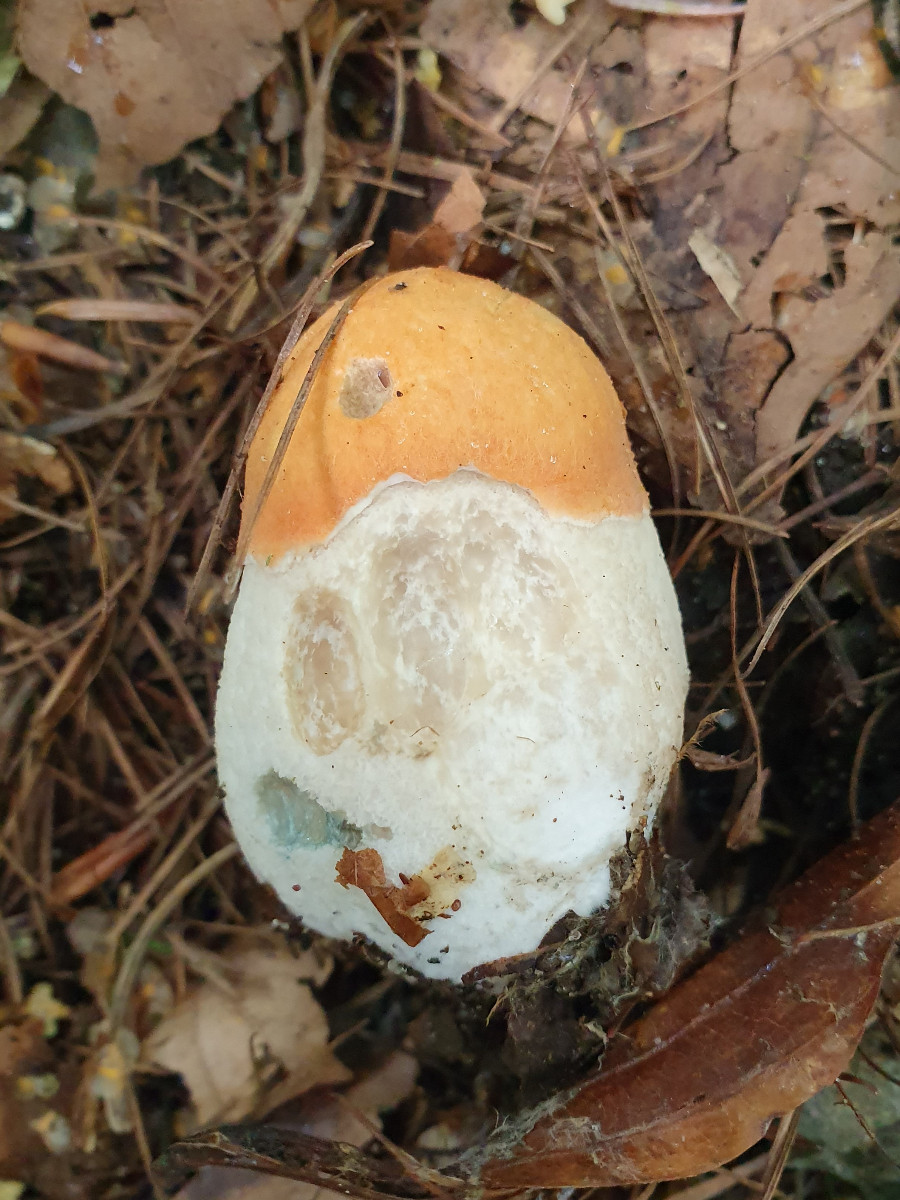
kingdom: Fungi
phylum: Basidiomycota
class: Agaricomycetes
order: Boletales
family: Boletaceae
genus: Leccinum
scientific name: Leccinum albostipitatum
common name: aspe-skælrørhat
